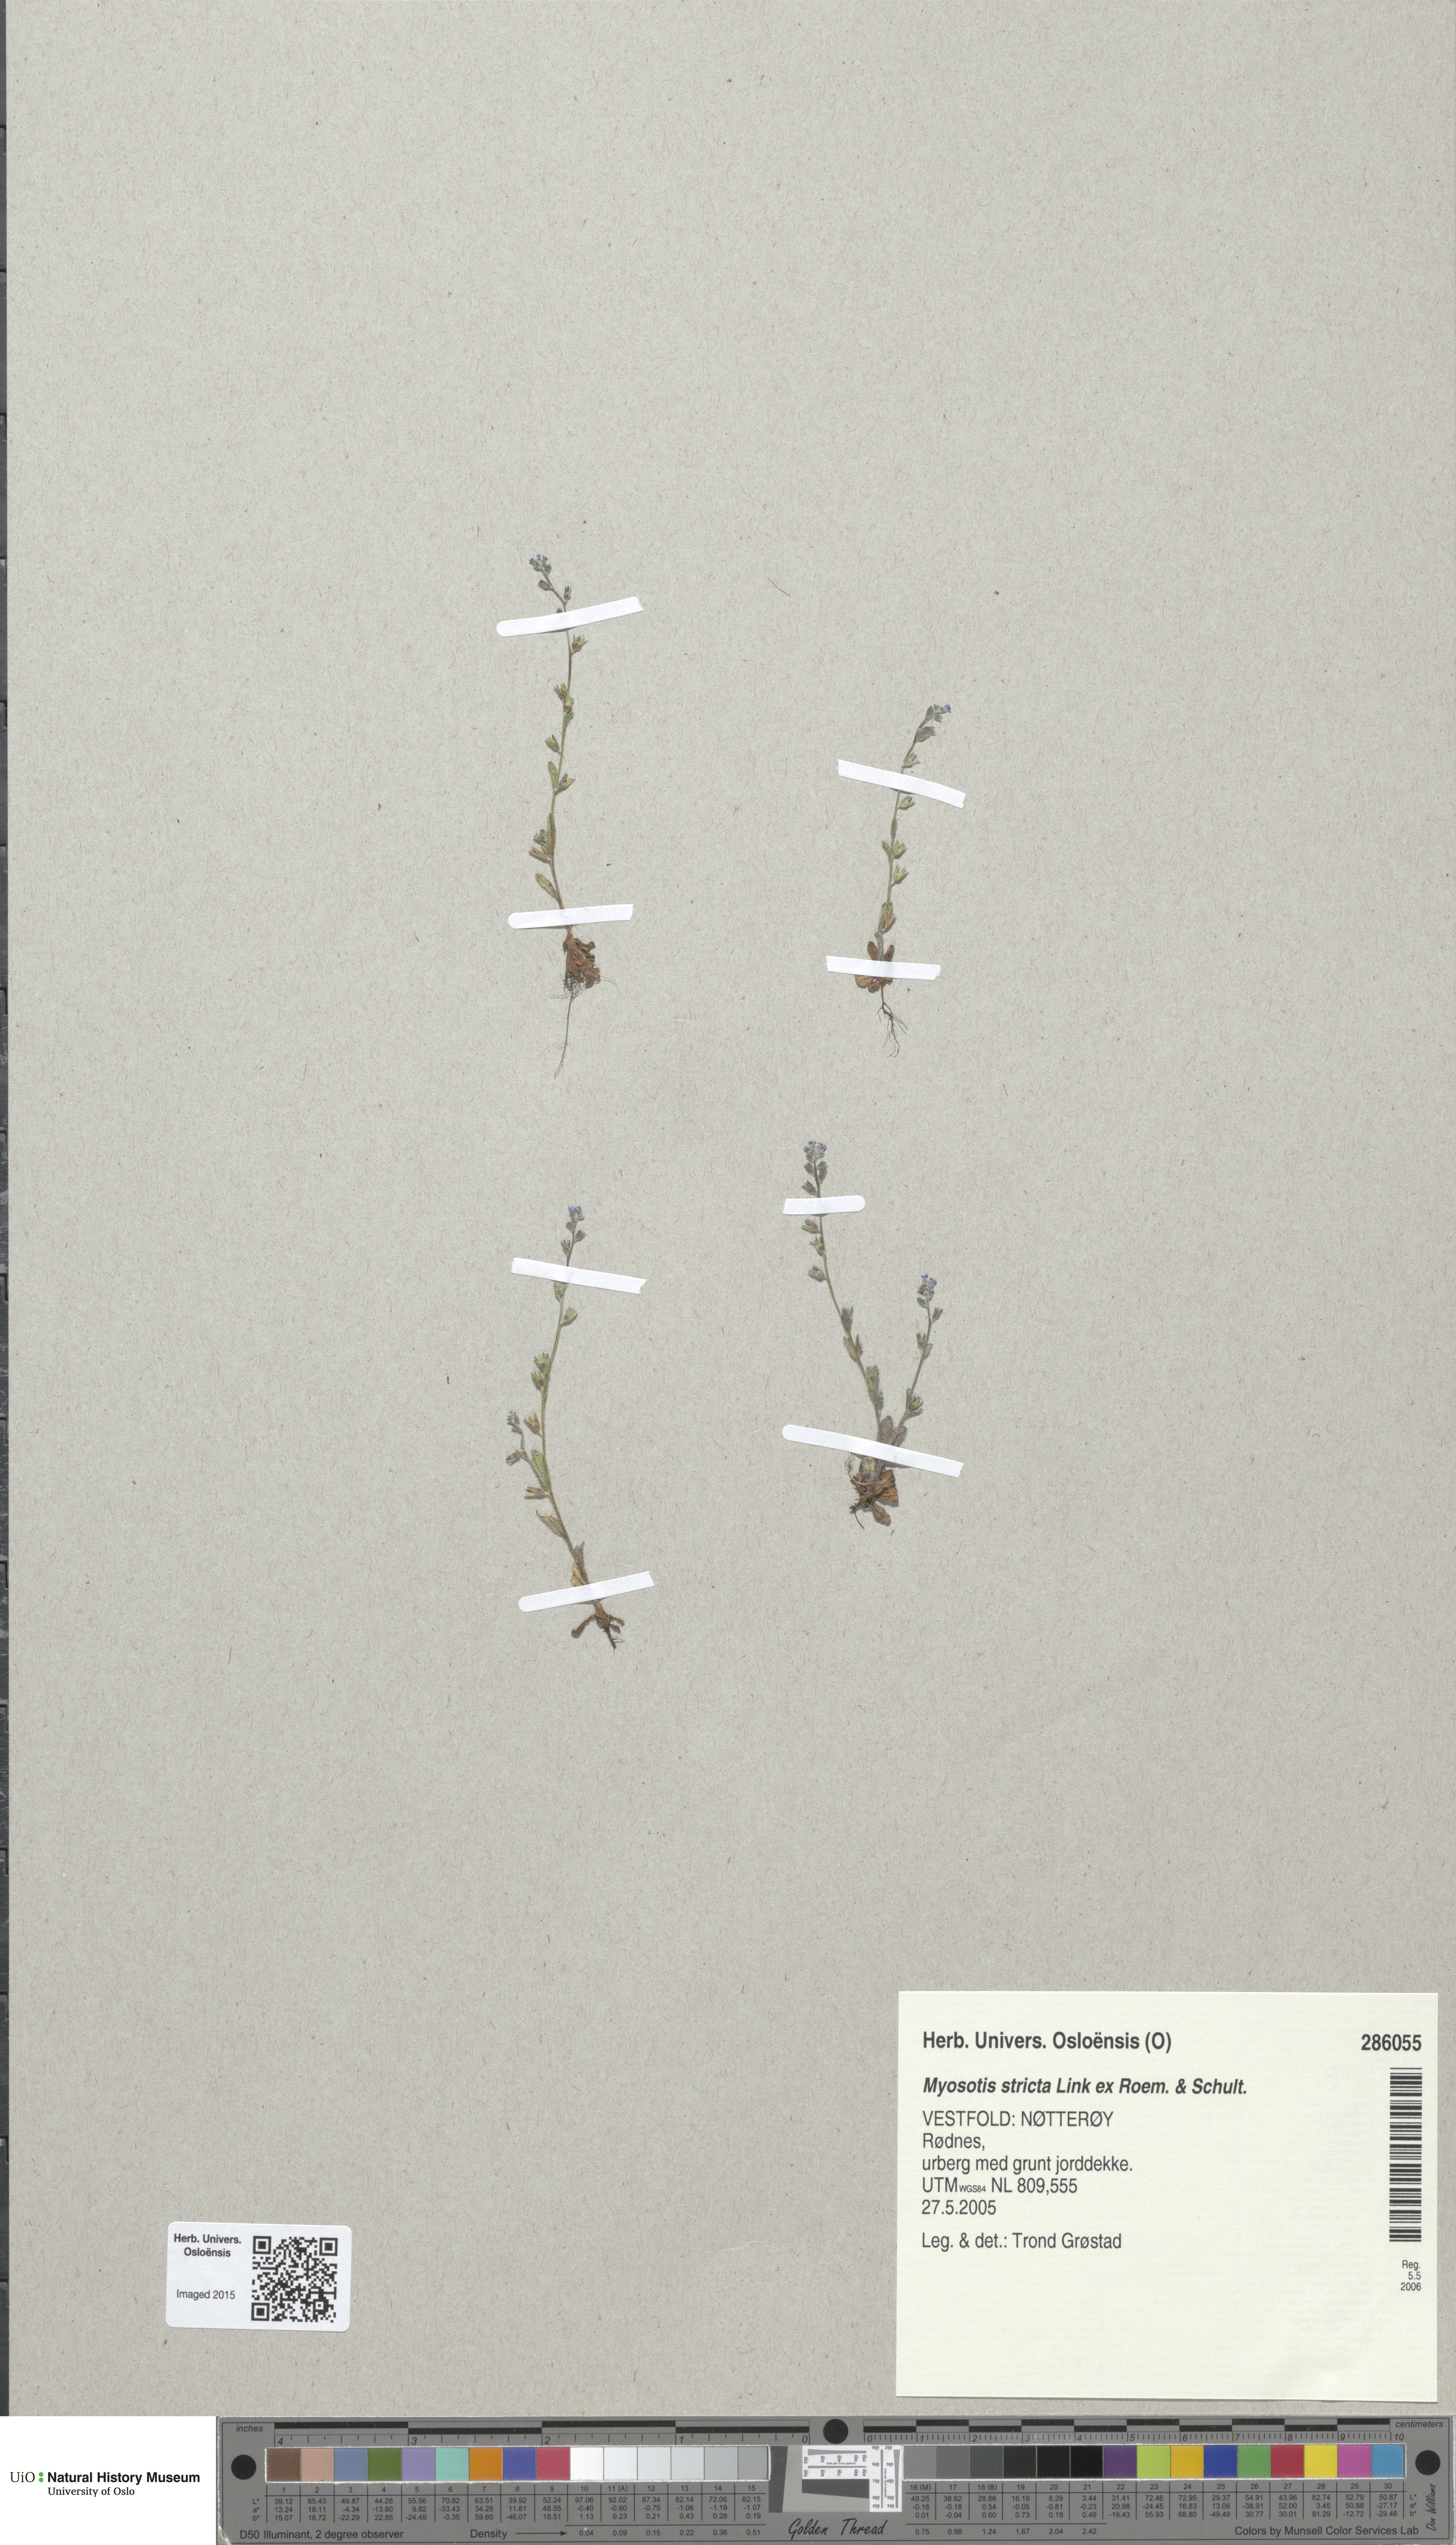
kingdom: Plantae
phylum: Tracheophyta
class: Magnoliopsida
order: Boraginales
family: Boraginaceae
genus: Myosotis
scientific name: Myosotis stricta
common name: Strict forget-me-not
